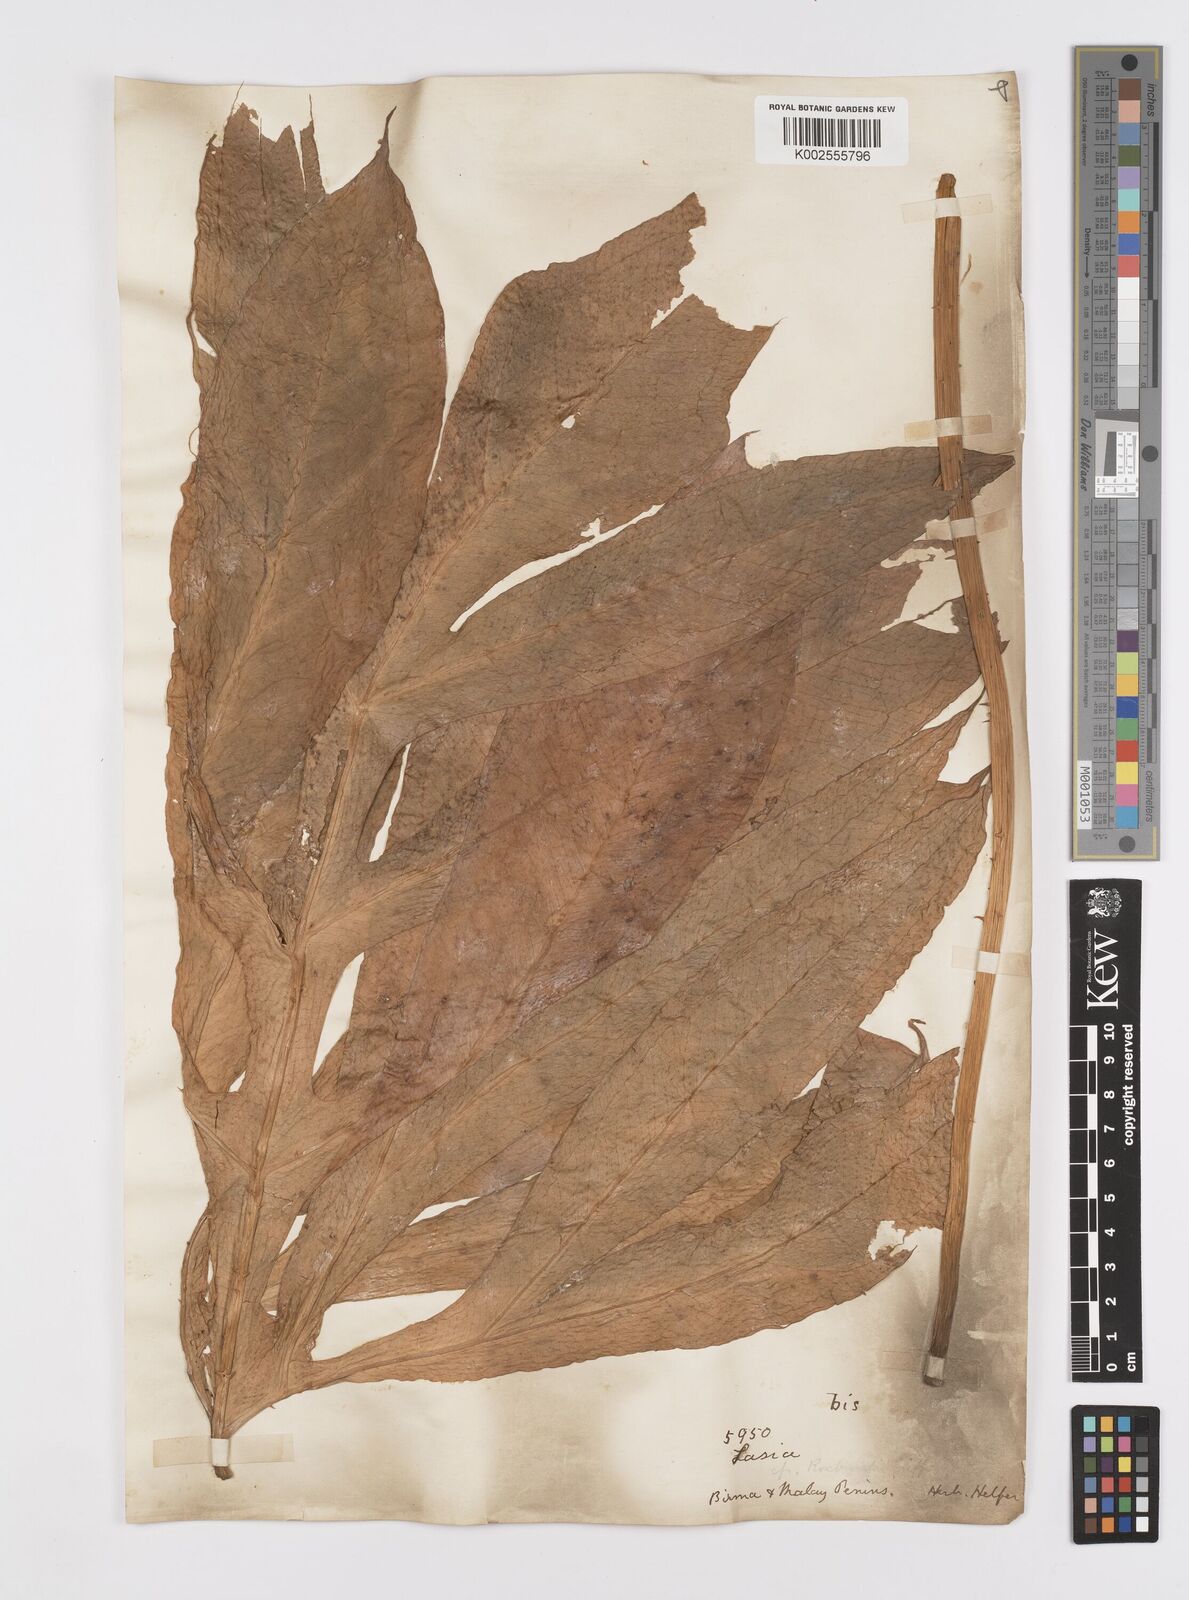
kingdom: Plantae
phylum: Tracheophyta
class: Liliopsida
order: Alismatales
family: Araceae
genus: Lasia
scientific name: Lasia spinosa
